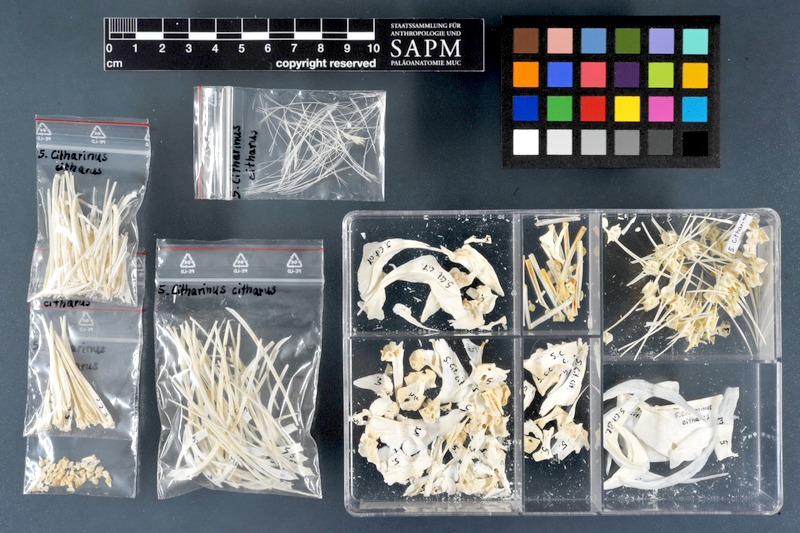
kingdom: Animalia
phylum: Chordata
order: Characiformes
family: Citharinidae
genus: Citharinus
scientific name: Citharinus citharus
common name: Moon fish
